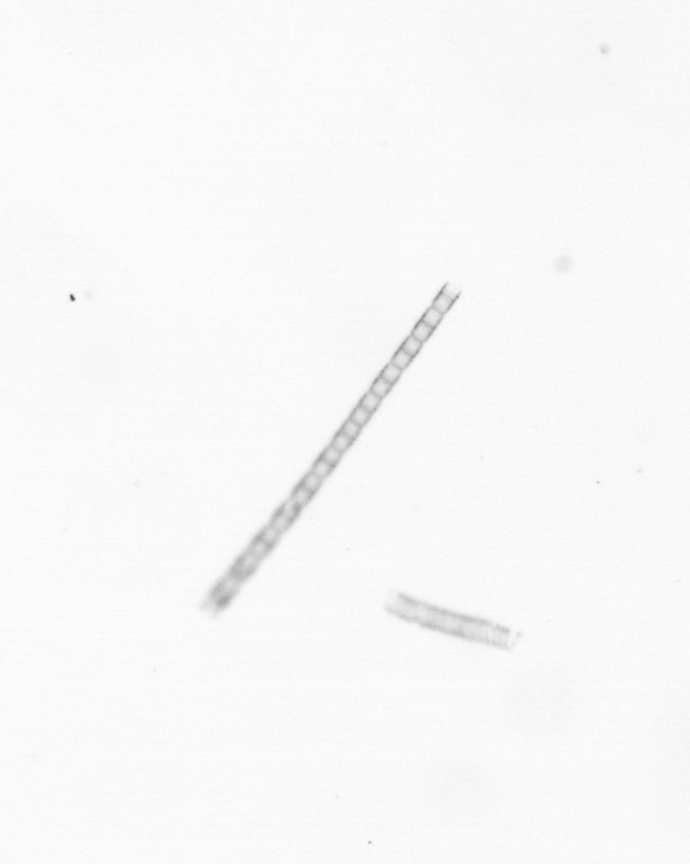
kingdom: Chromista
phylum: Ochrophyta
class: Bacillariophyceae
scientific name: Bacillariophyceae
